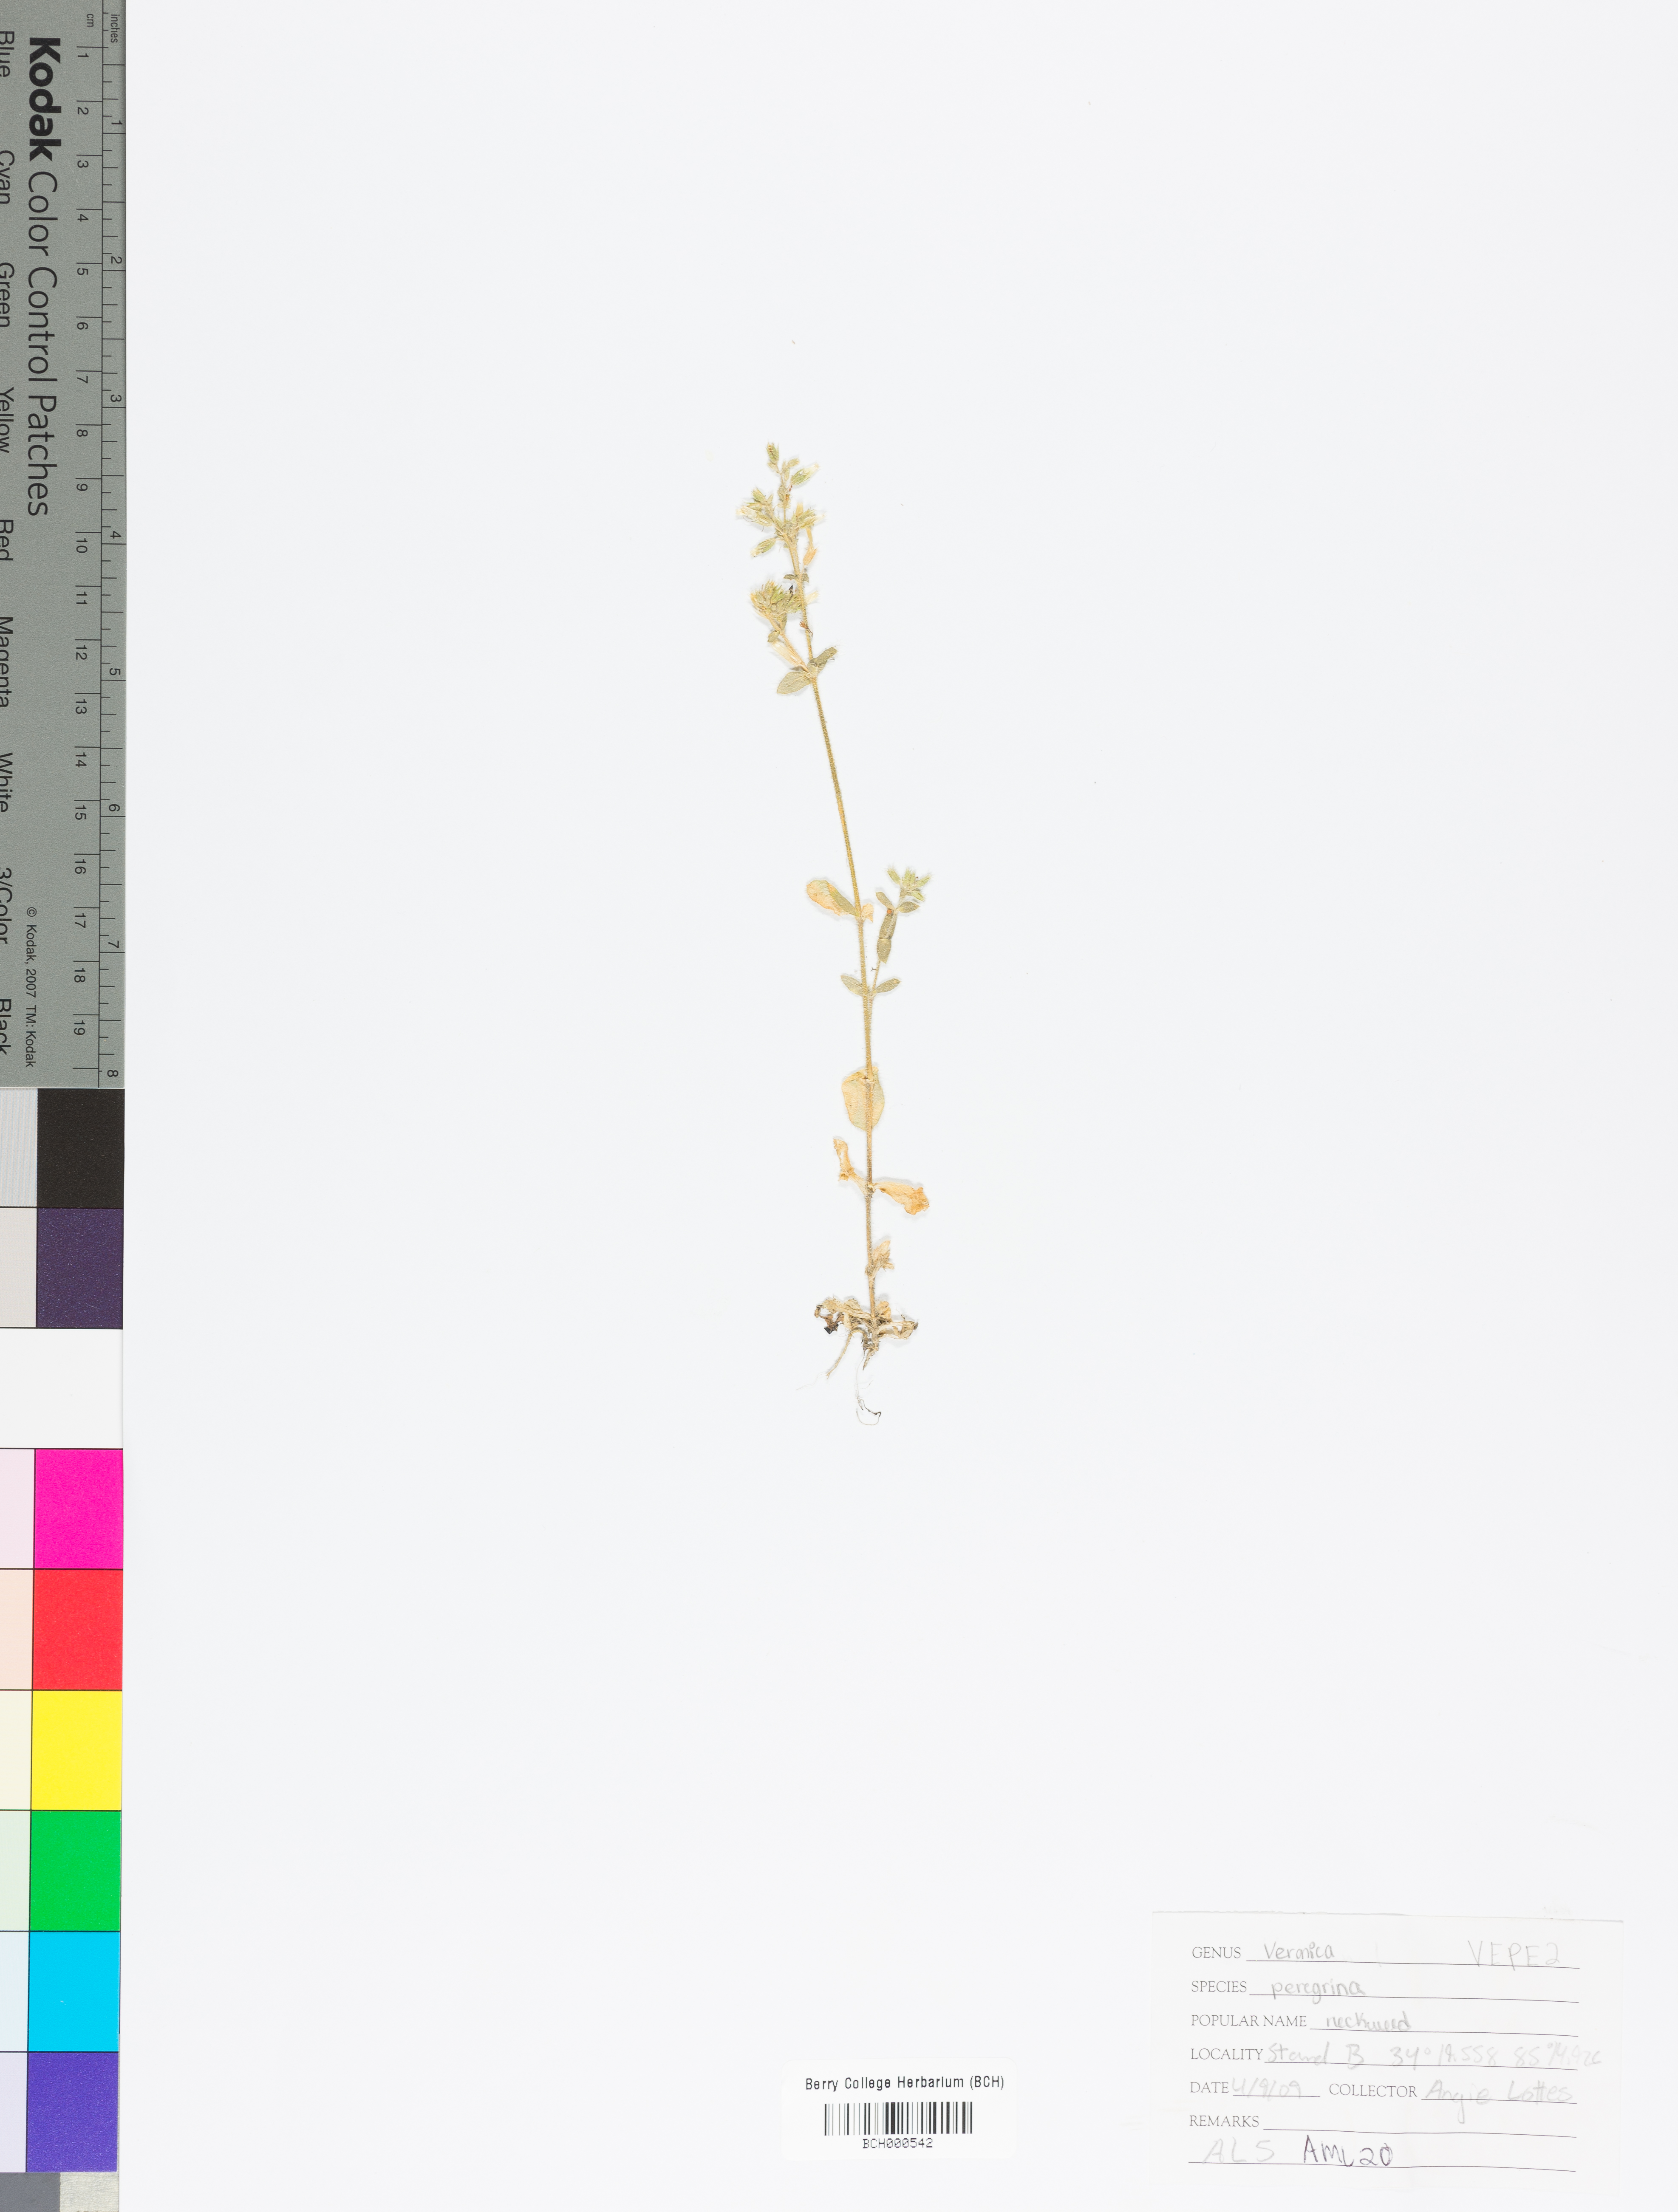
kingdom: Plantae
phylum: Tracheophyta
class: Magnoliopsida
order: Lamiales
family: Plantaginaceae
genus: Veronica
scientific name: Veronica peregrina
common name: Neckweed
